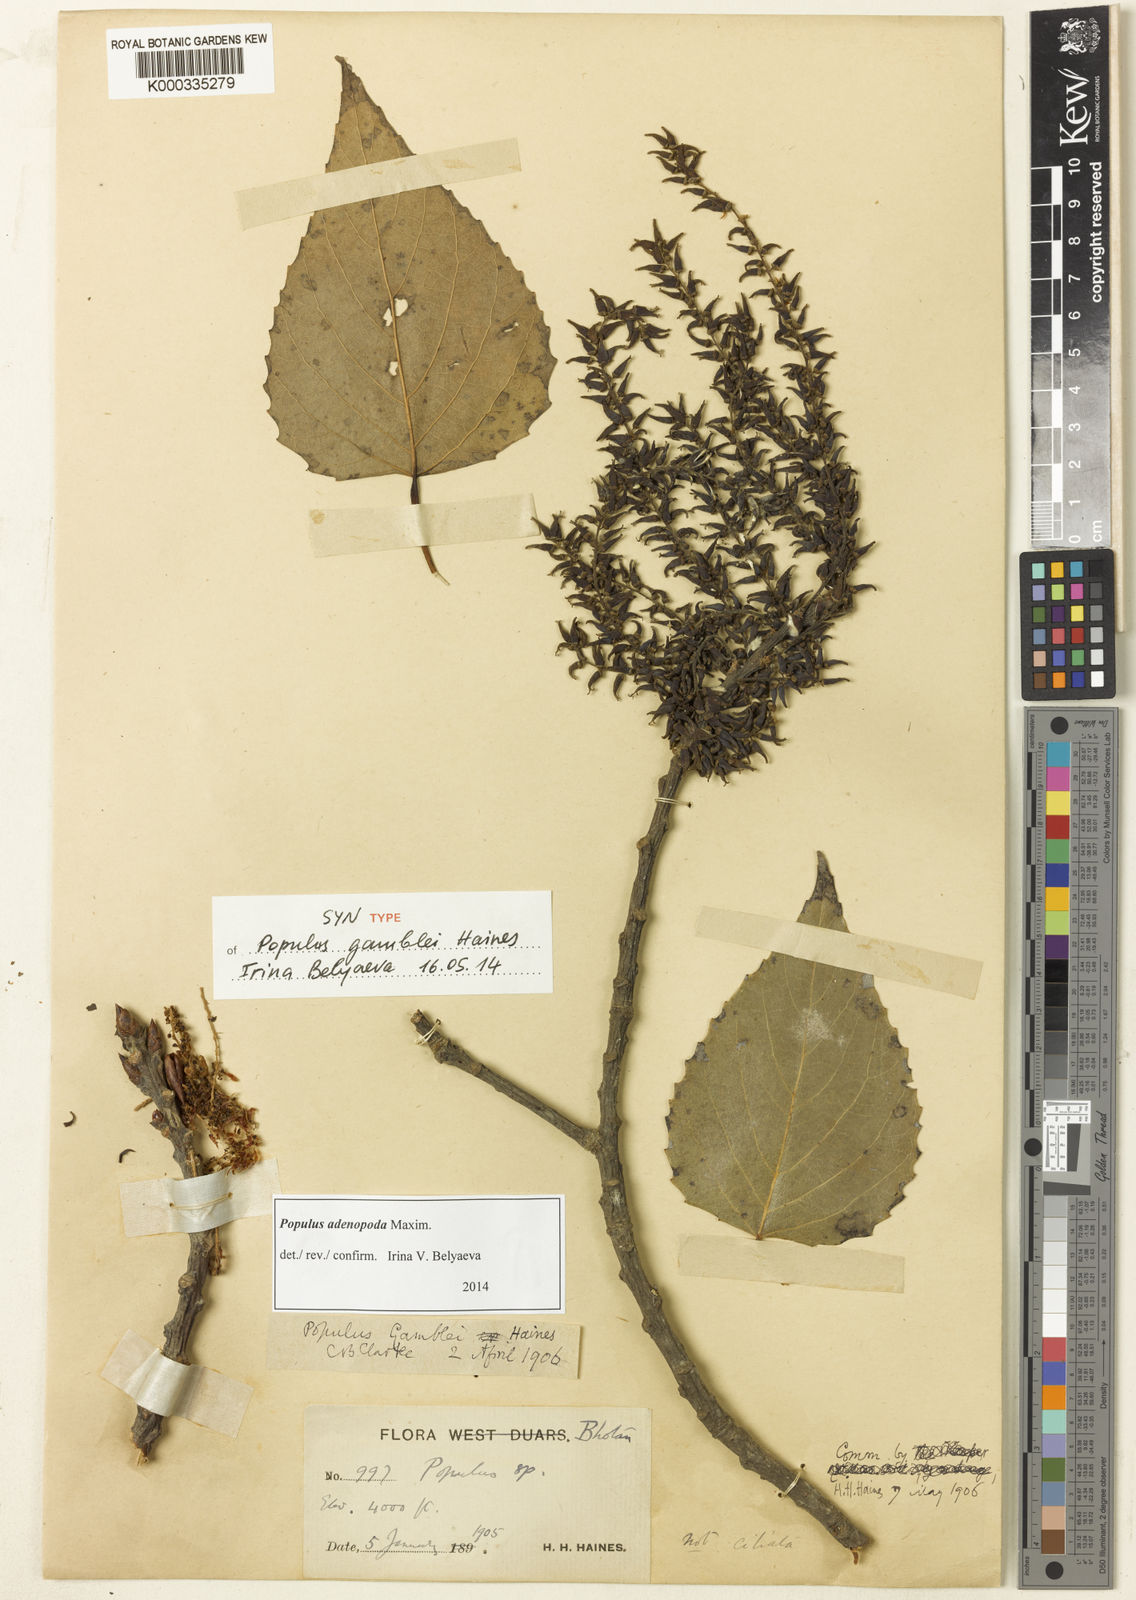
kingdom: Plantae
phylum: Tracheophyta
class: Magnoliopsida
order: Malpighiales
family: Salicaceae
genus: Populus
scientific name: Populus
